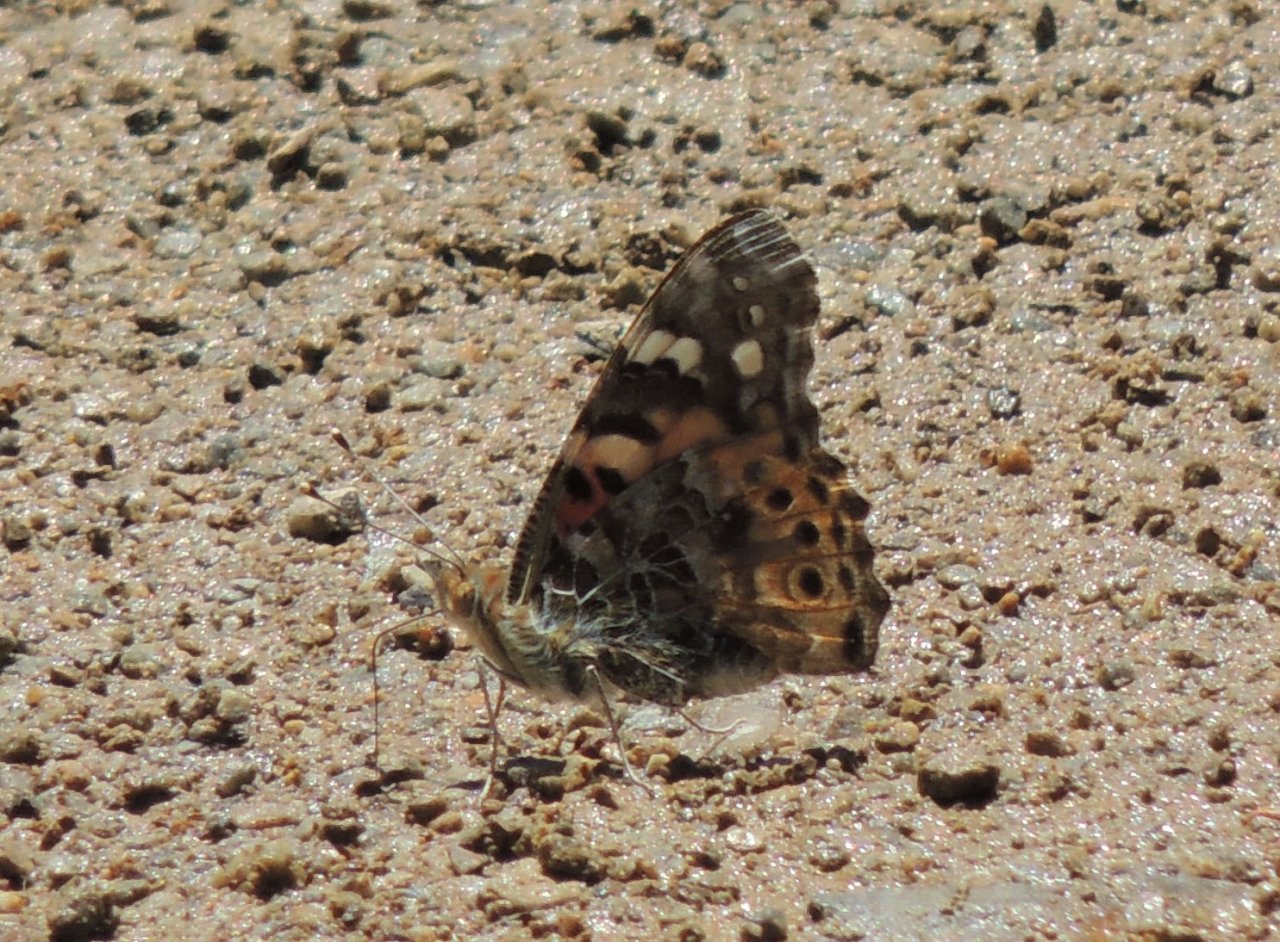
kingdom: Animalia
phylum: Arthropoda
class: Insecta
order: Lepidoptera
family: Nymphalidae
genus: Vanessa
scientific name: Vanessa cardui
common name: Painted Lady
